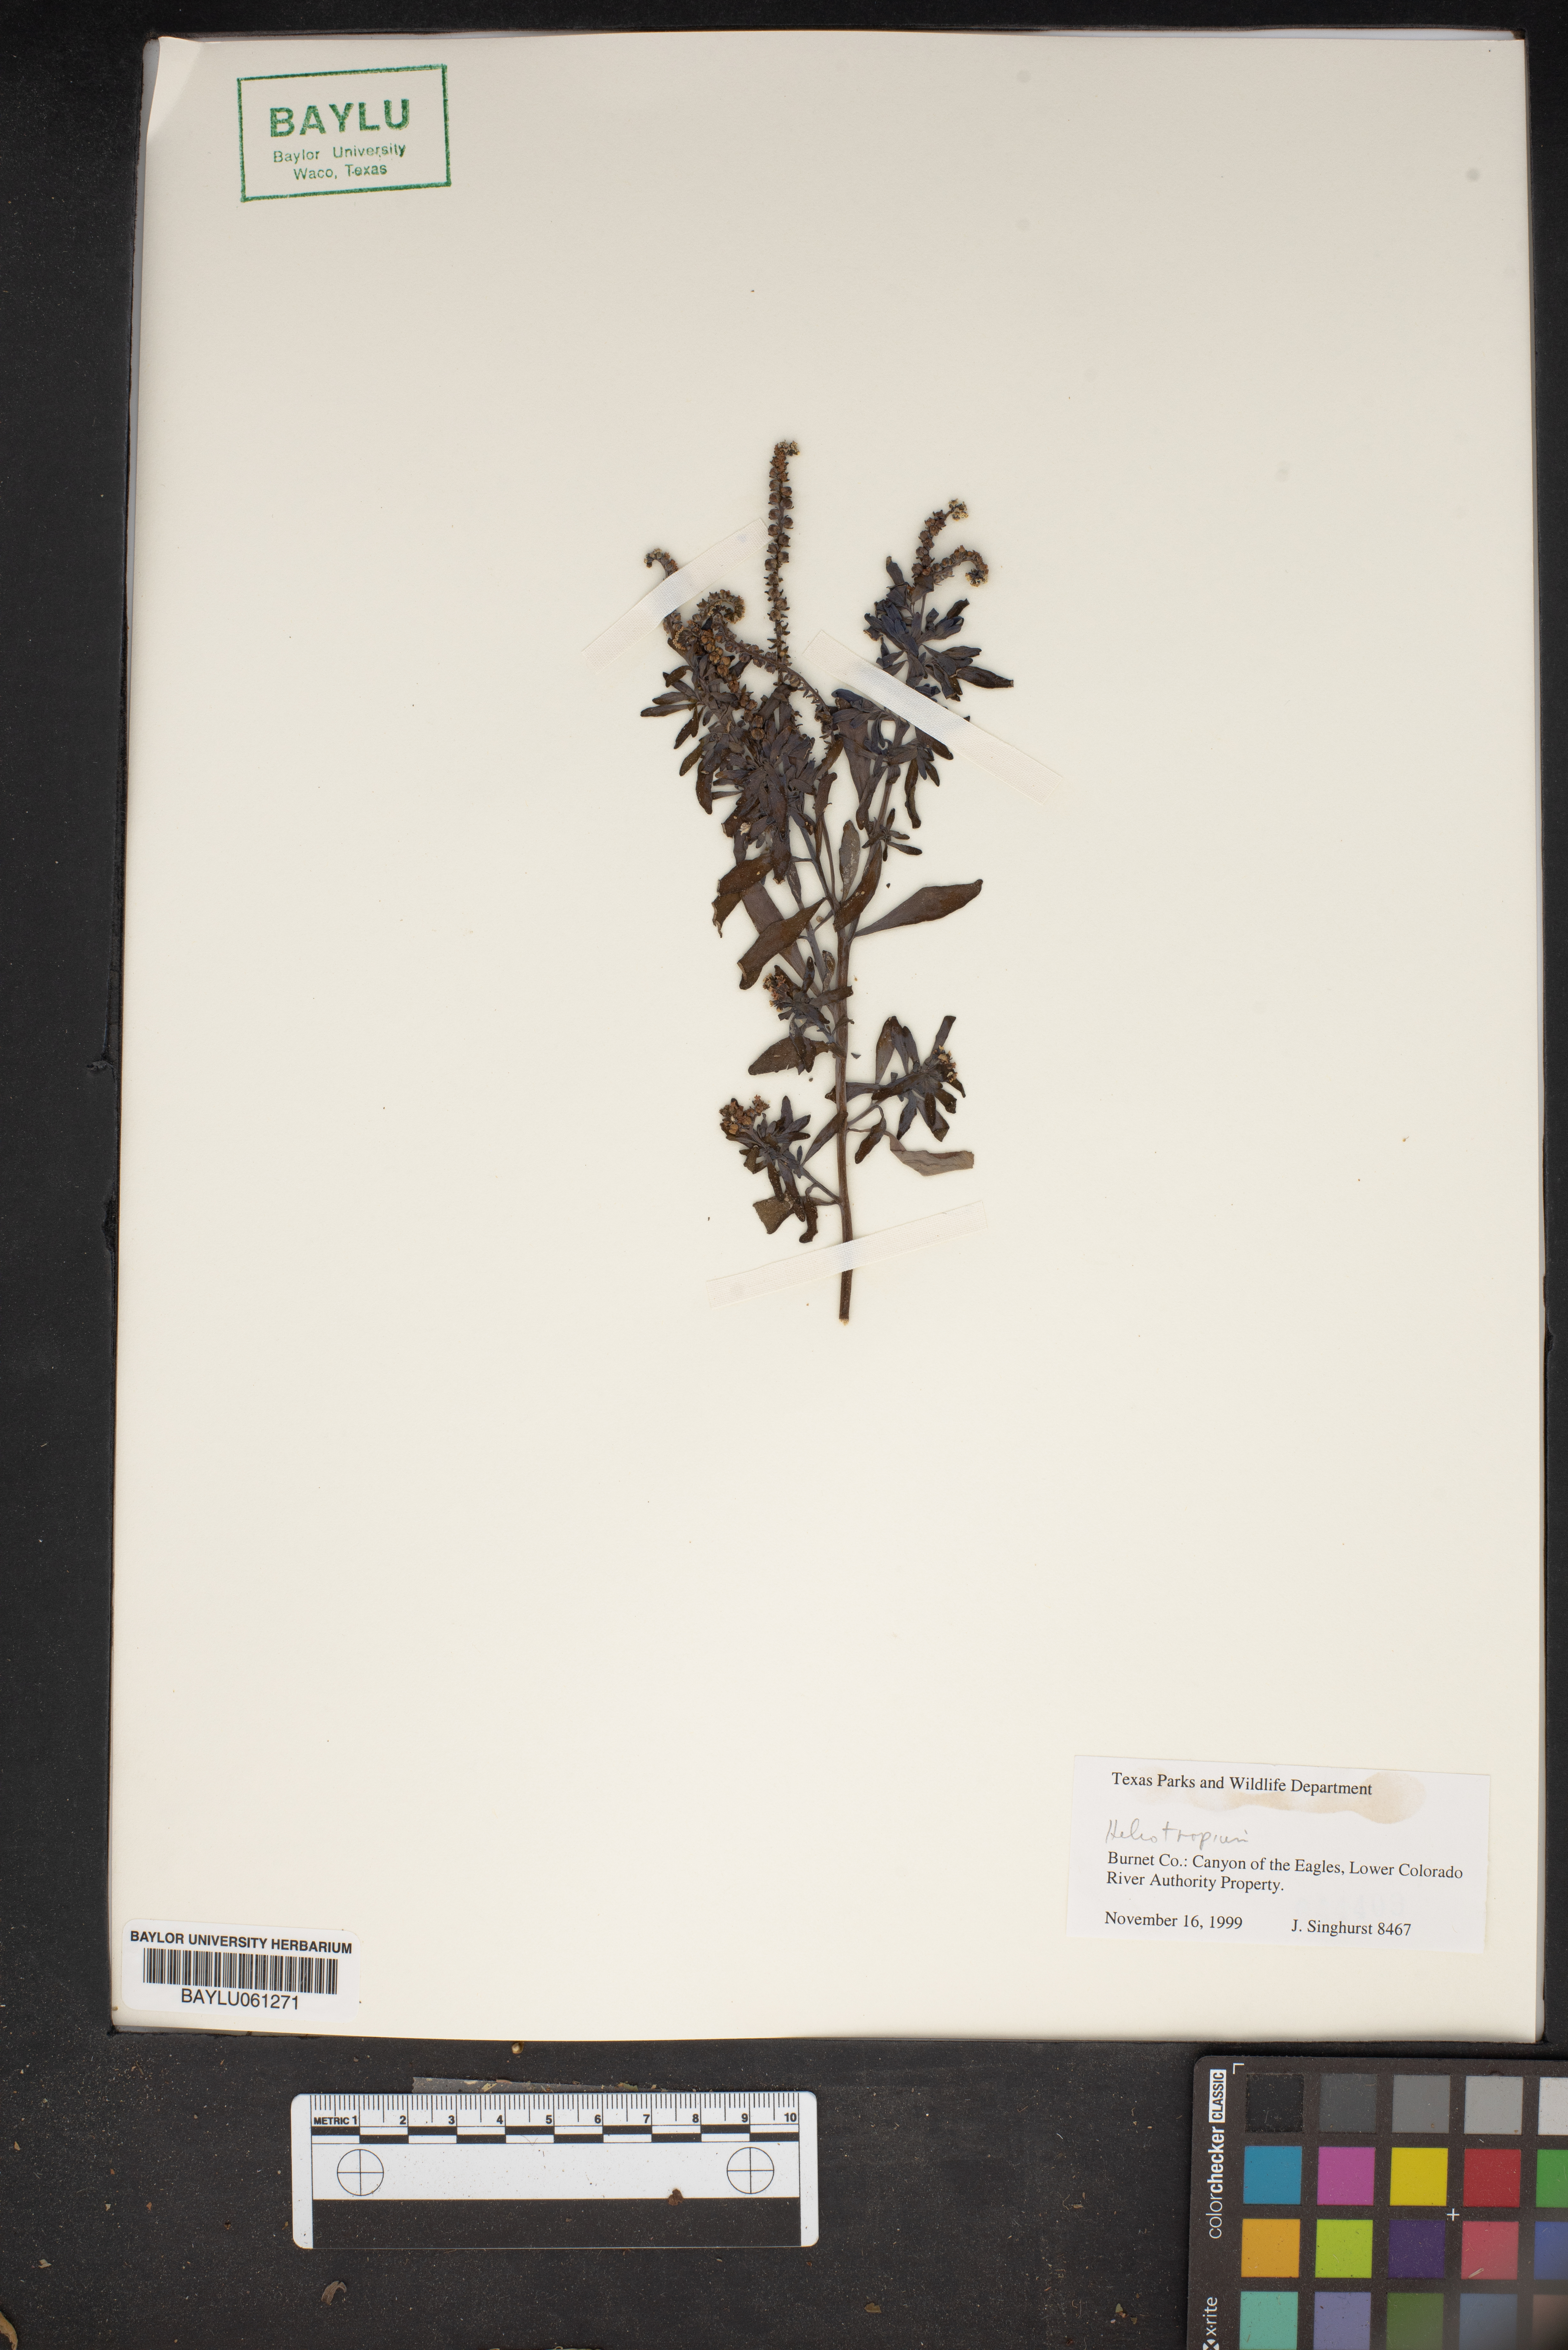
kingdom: Plantae
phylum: Tracheophyta
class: Magnoliopsida
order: Boraginales
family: Heliotropiaceae
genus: Heliotropium
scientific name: Heliotropium
